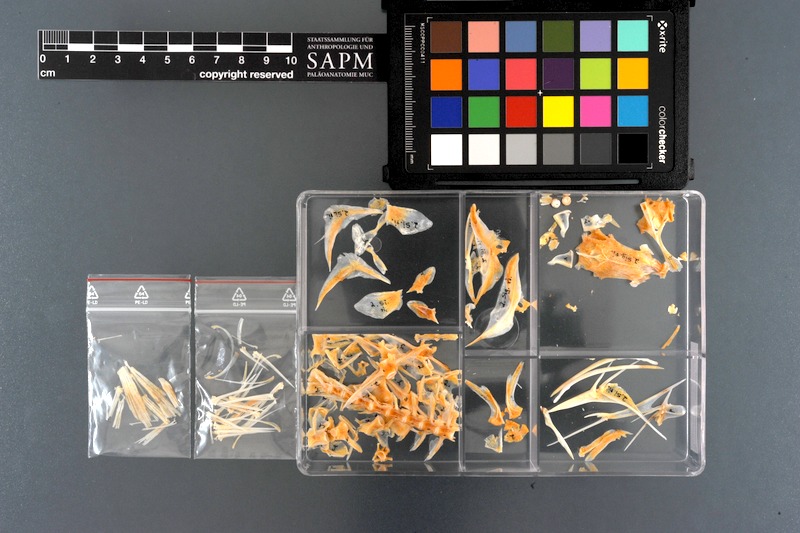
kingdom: Animalia
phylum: Chordata
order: Perciformes
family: Siganidae
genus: Siganus
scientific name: Siganus rivulatus
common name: Marbled spinefoot
